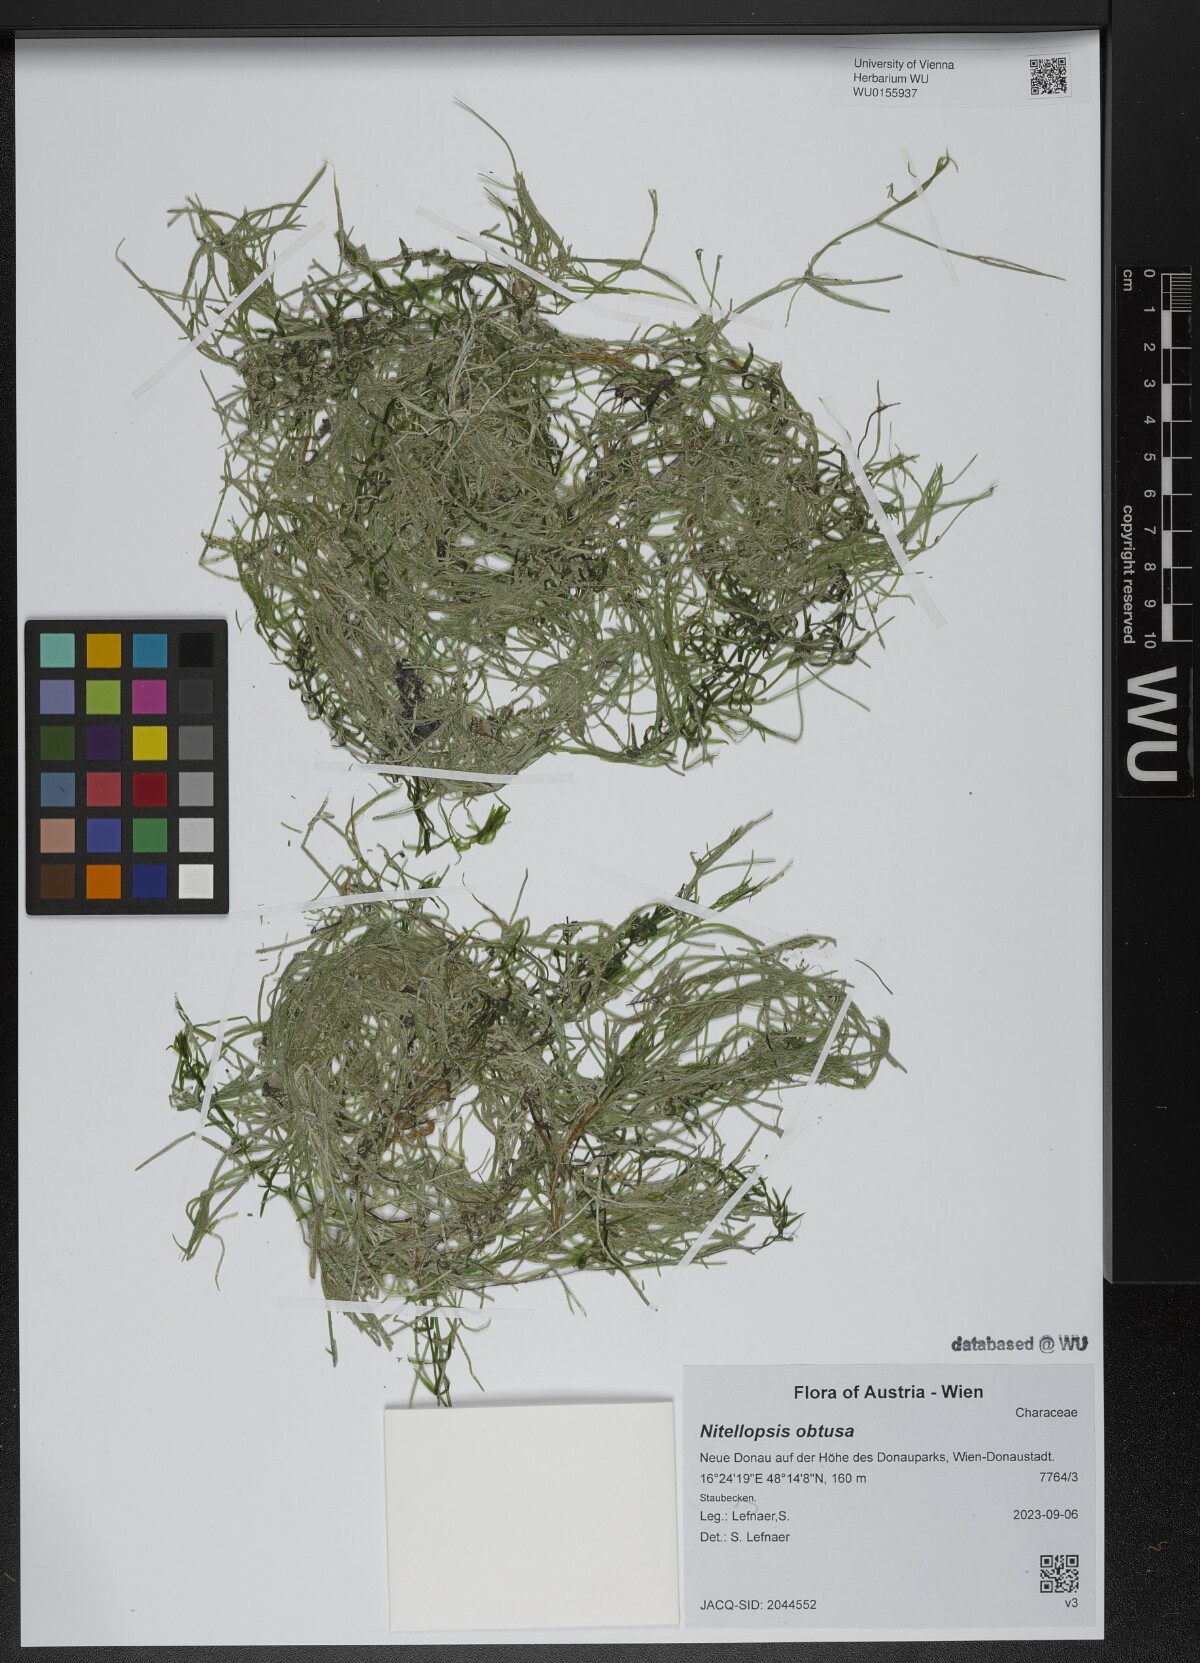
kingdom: Plantae
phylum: Charophyta
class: Charophyceae
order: Charales
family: Characeae
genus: Nitellopsis
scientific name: Nitellopsis obtusa
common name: Starry stonewort
